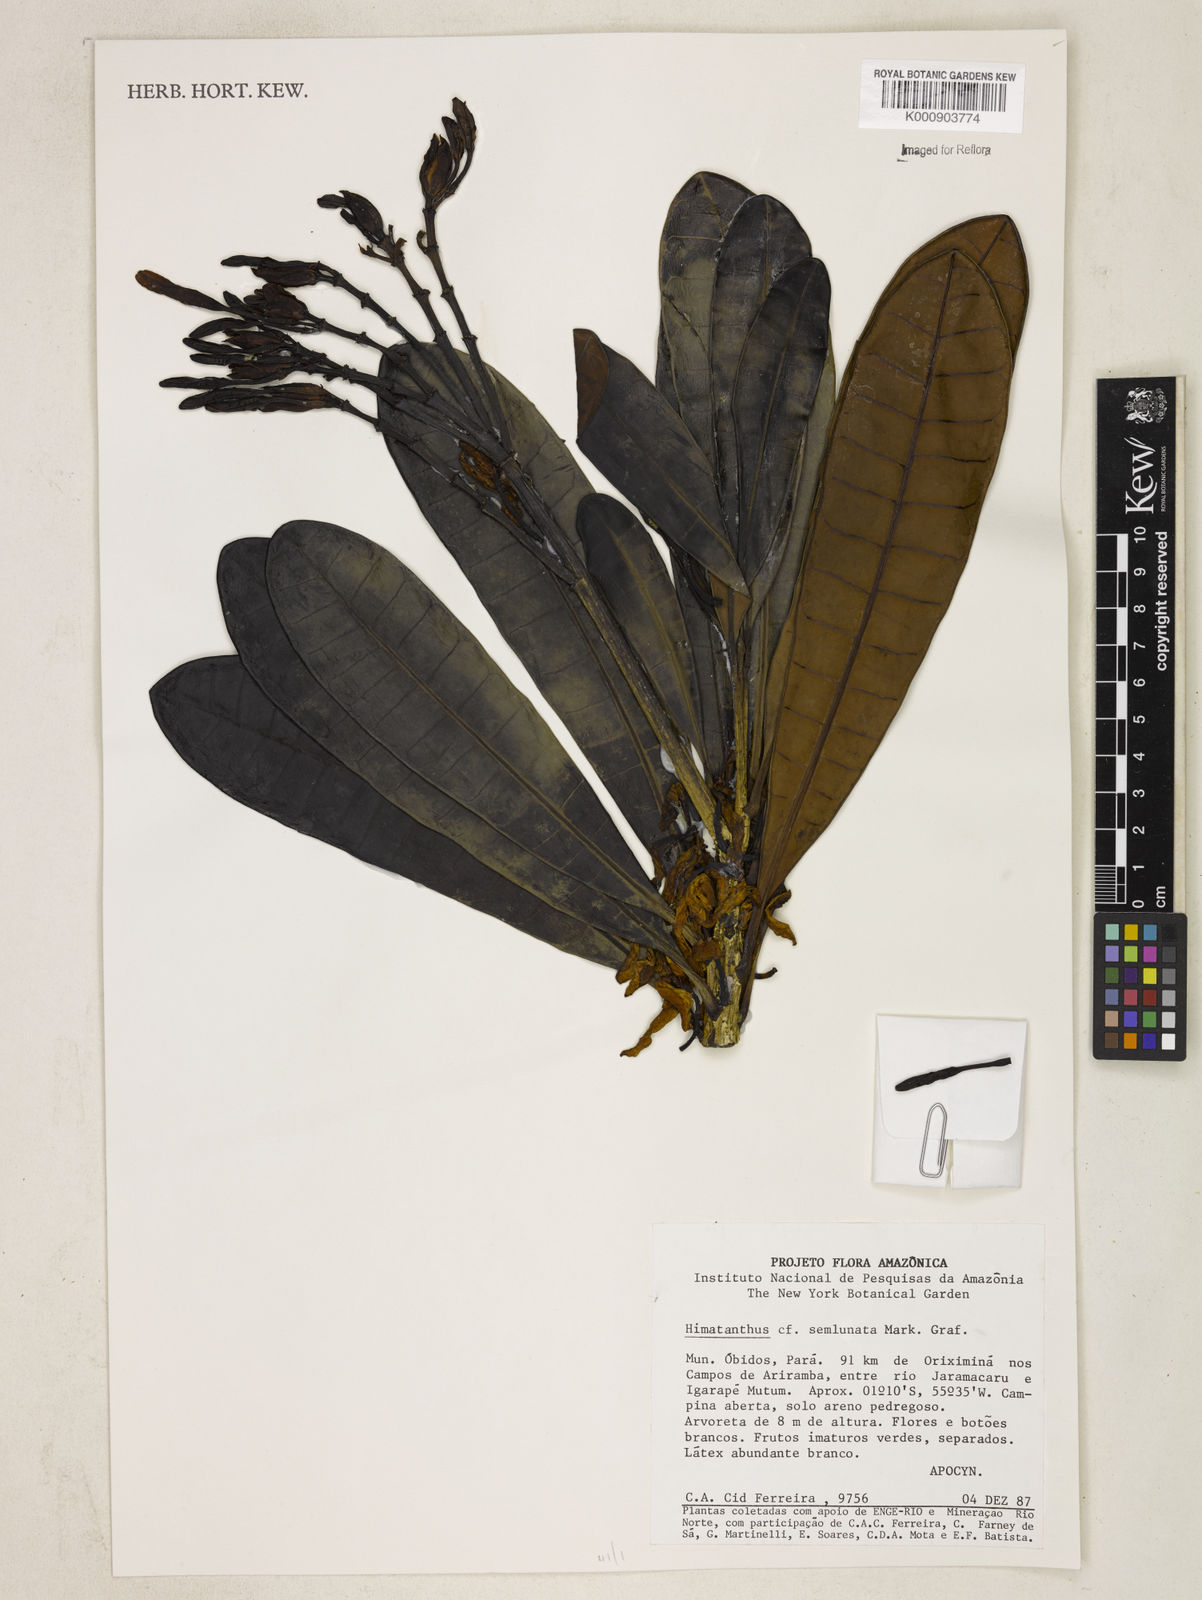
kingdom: Plantae
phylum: Tracheophyta
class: Magnoliopsida
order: Gentianales
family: Apocynaceae
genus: Himatanthus
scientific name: Himatanthus semilunatus
